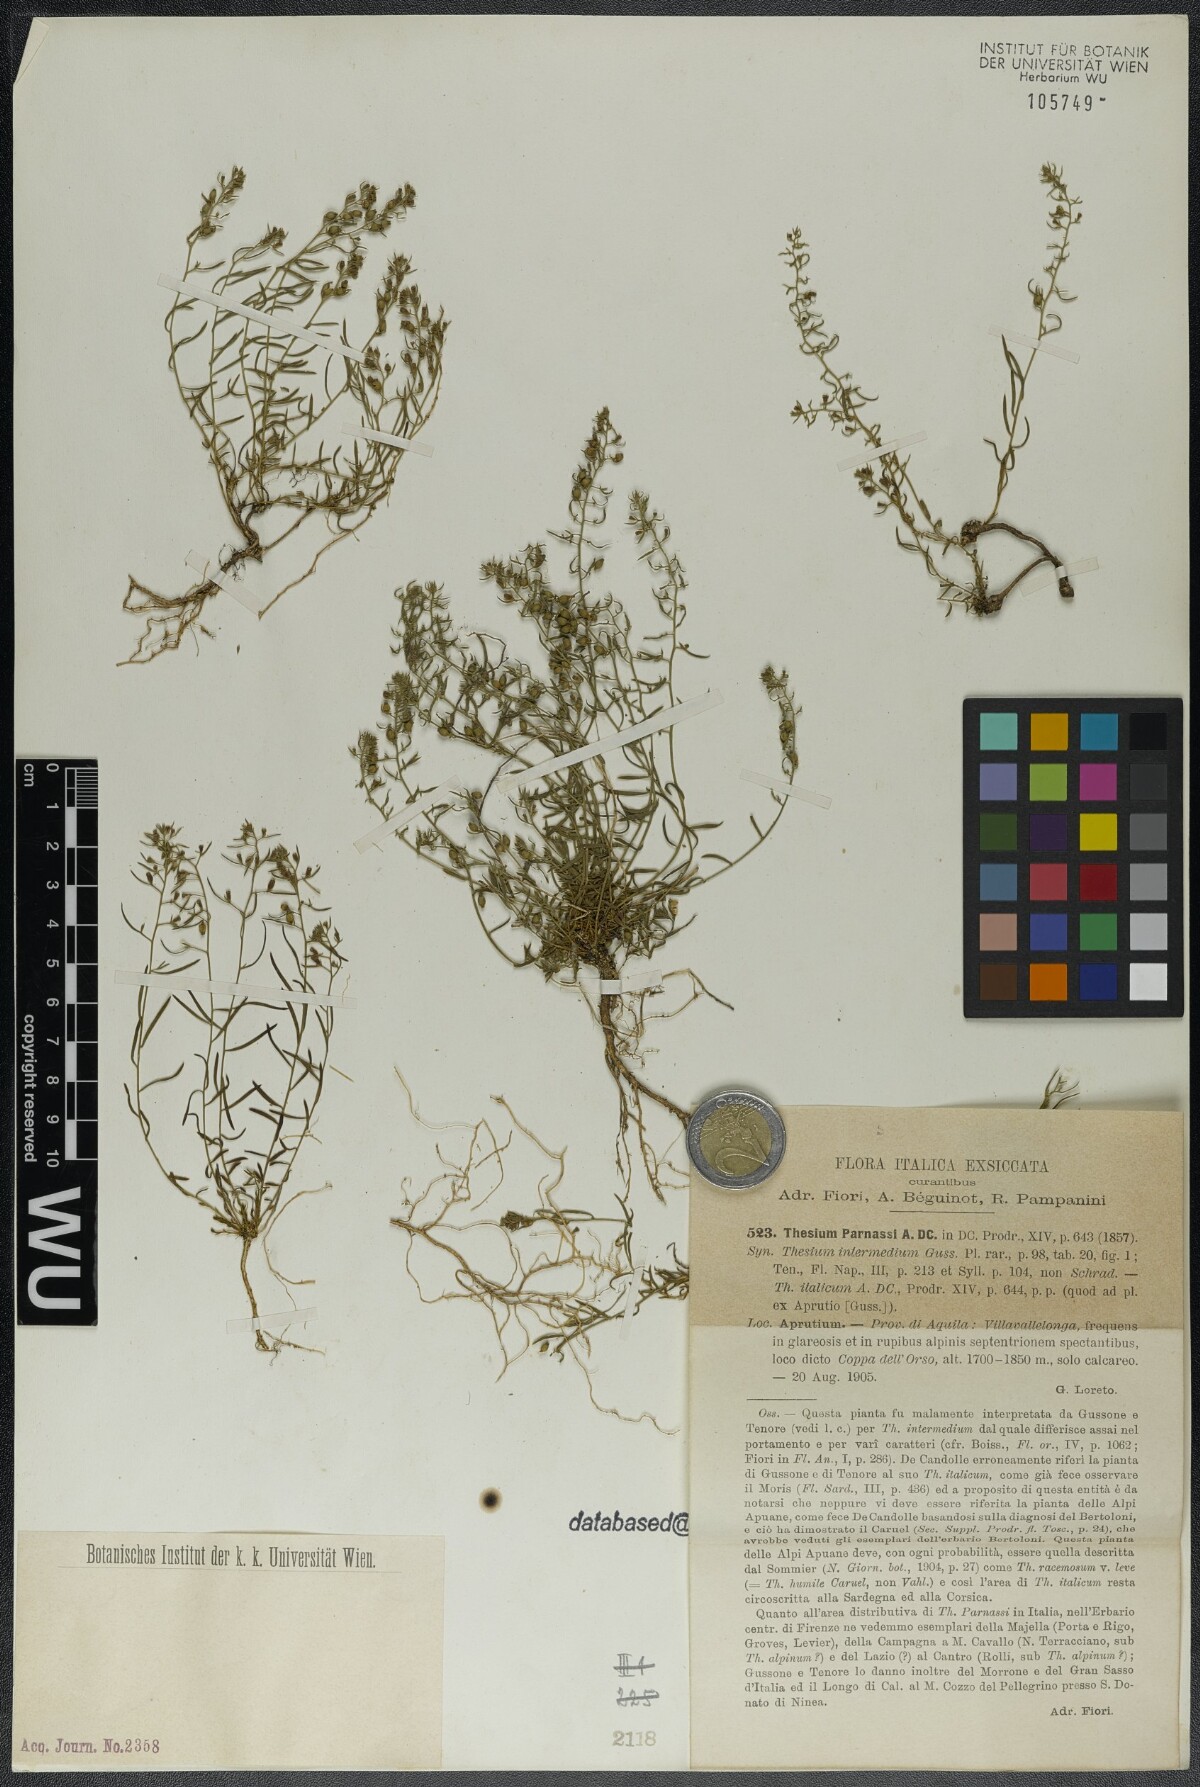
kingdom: Plantae
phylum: Tracheophyta
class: Magnoliopsida
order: Santalales
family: Thesiaceae
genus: Thesium
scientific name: Thesium parnassi
